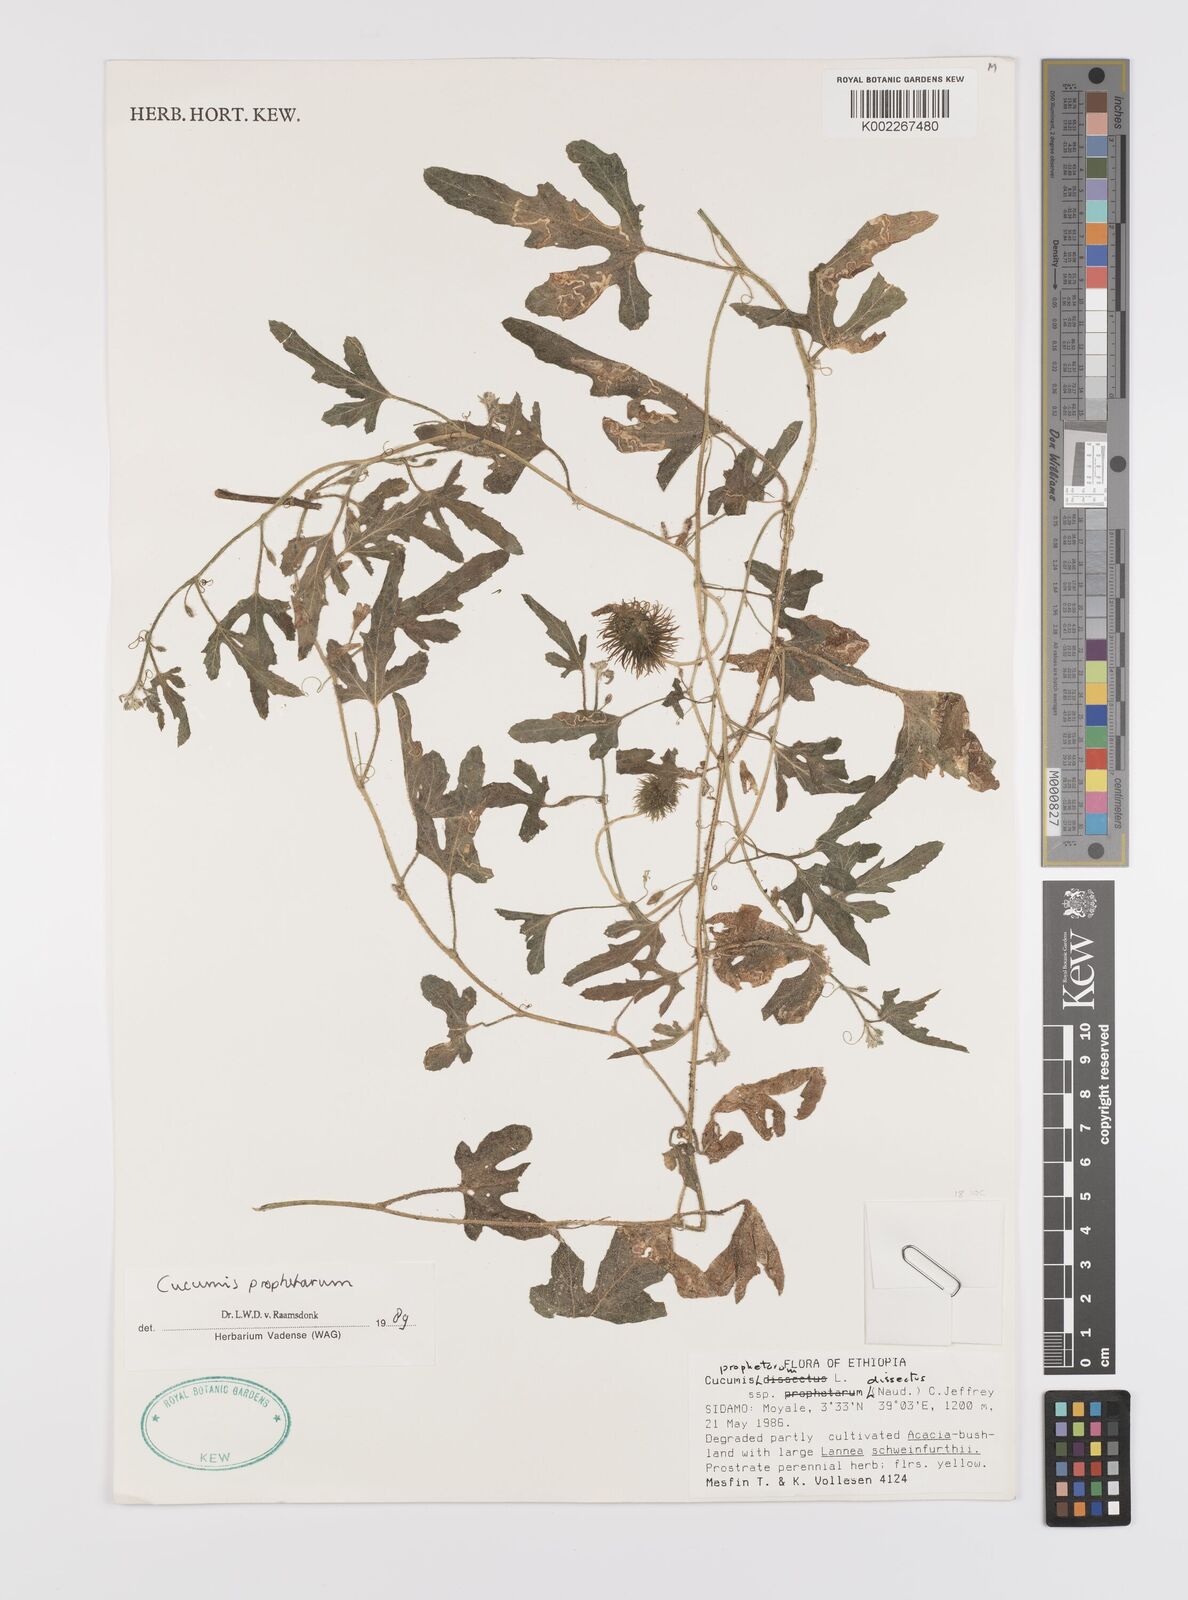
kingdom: Plantae
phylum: Tracheophyta
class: Magnoliopsida
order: Cucurbitales
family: Cucurbitaceae
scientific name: Cucurbitaceae
